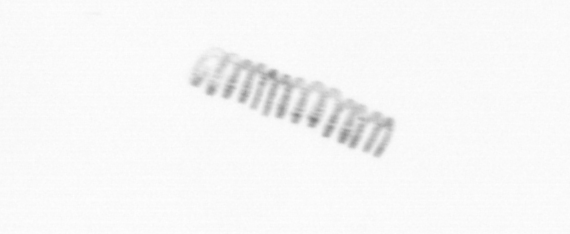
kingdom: Chromista
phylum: Ochrophyta
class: Bacillariophyceae
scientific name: Bacillariophyceae
